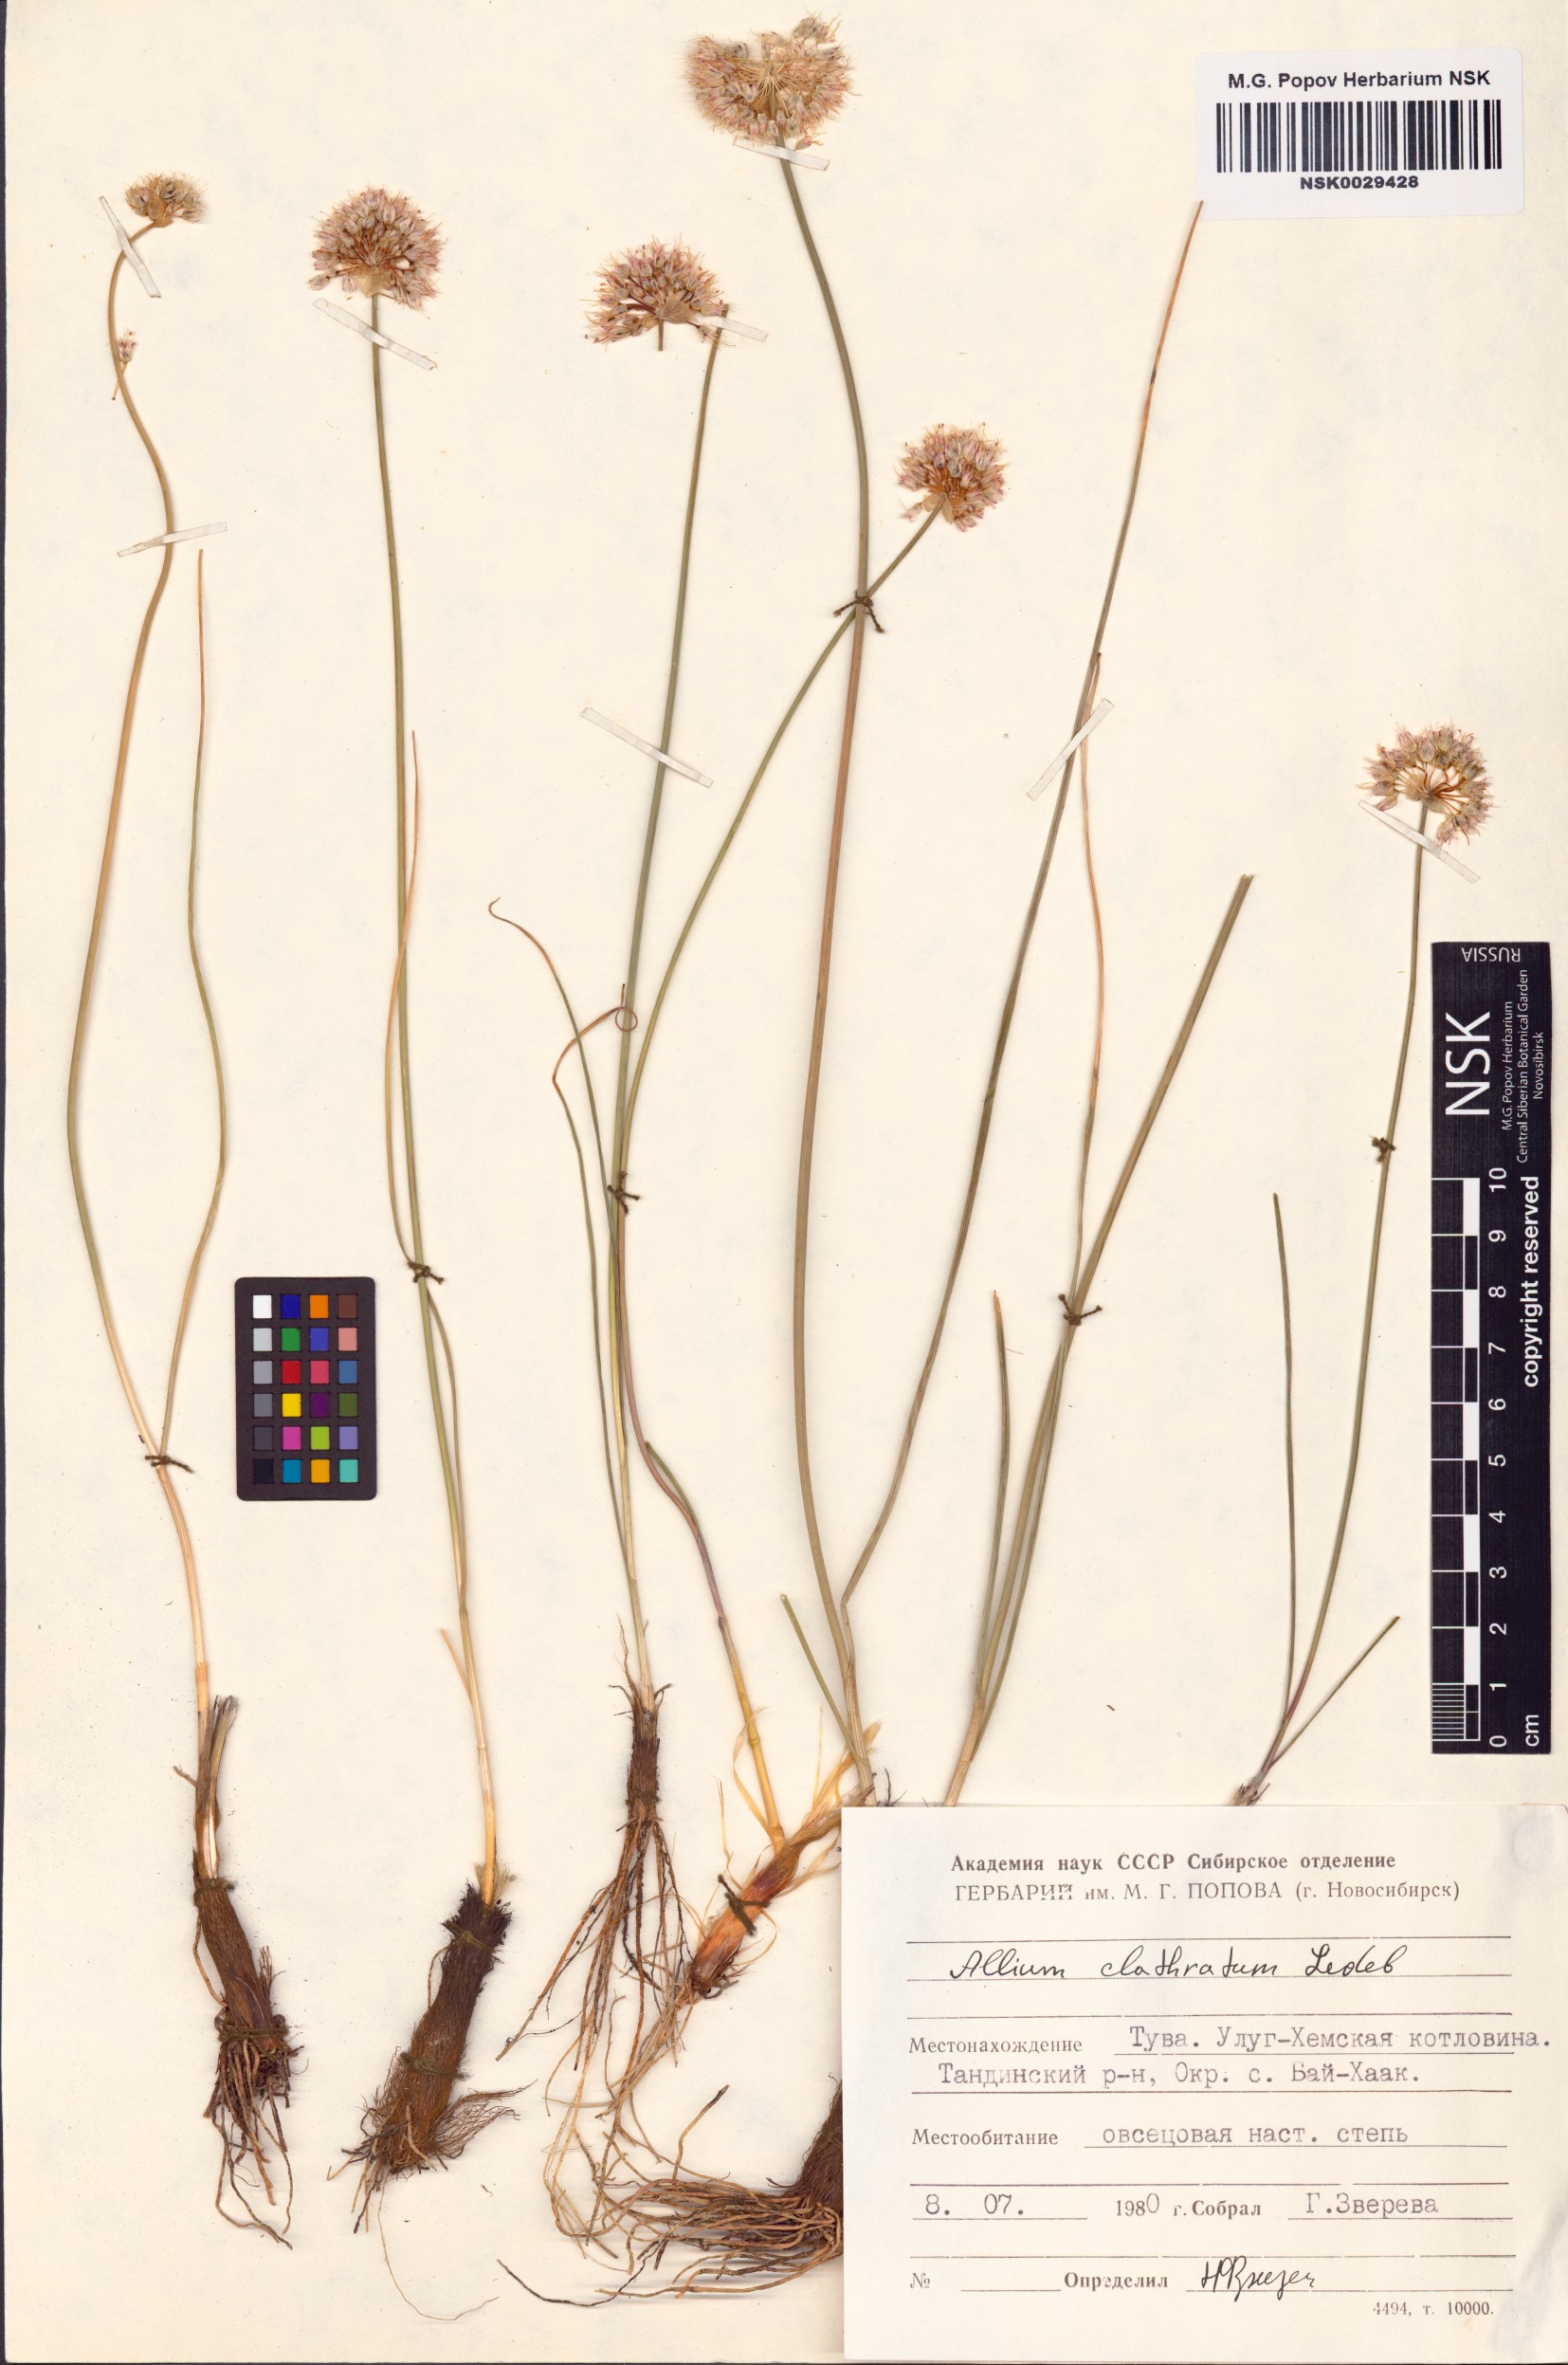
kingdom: Plantae
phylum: Tracheophyta
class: Liliopsida
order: Asparagales
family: Amaryllidaceae
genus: Allium
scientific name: Allium clathratum
